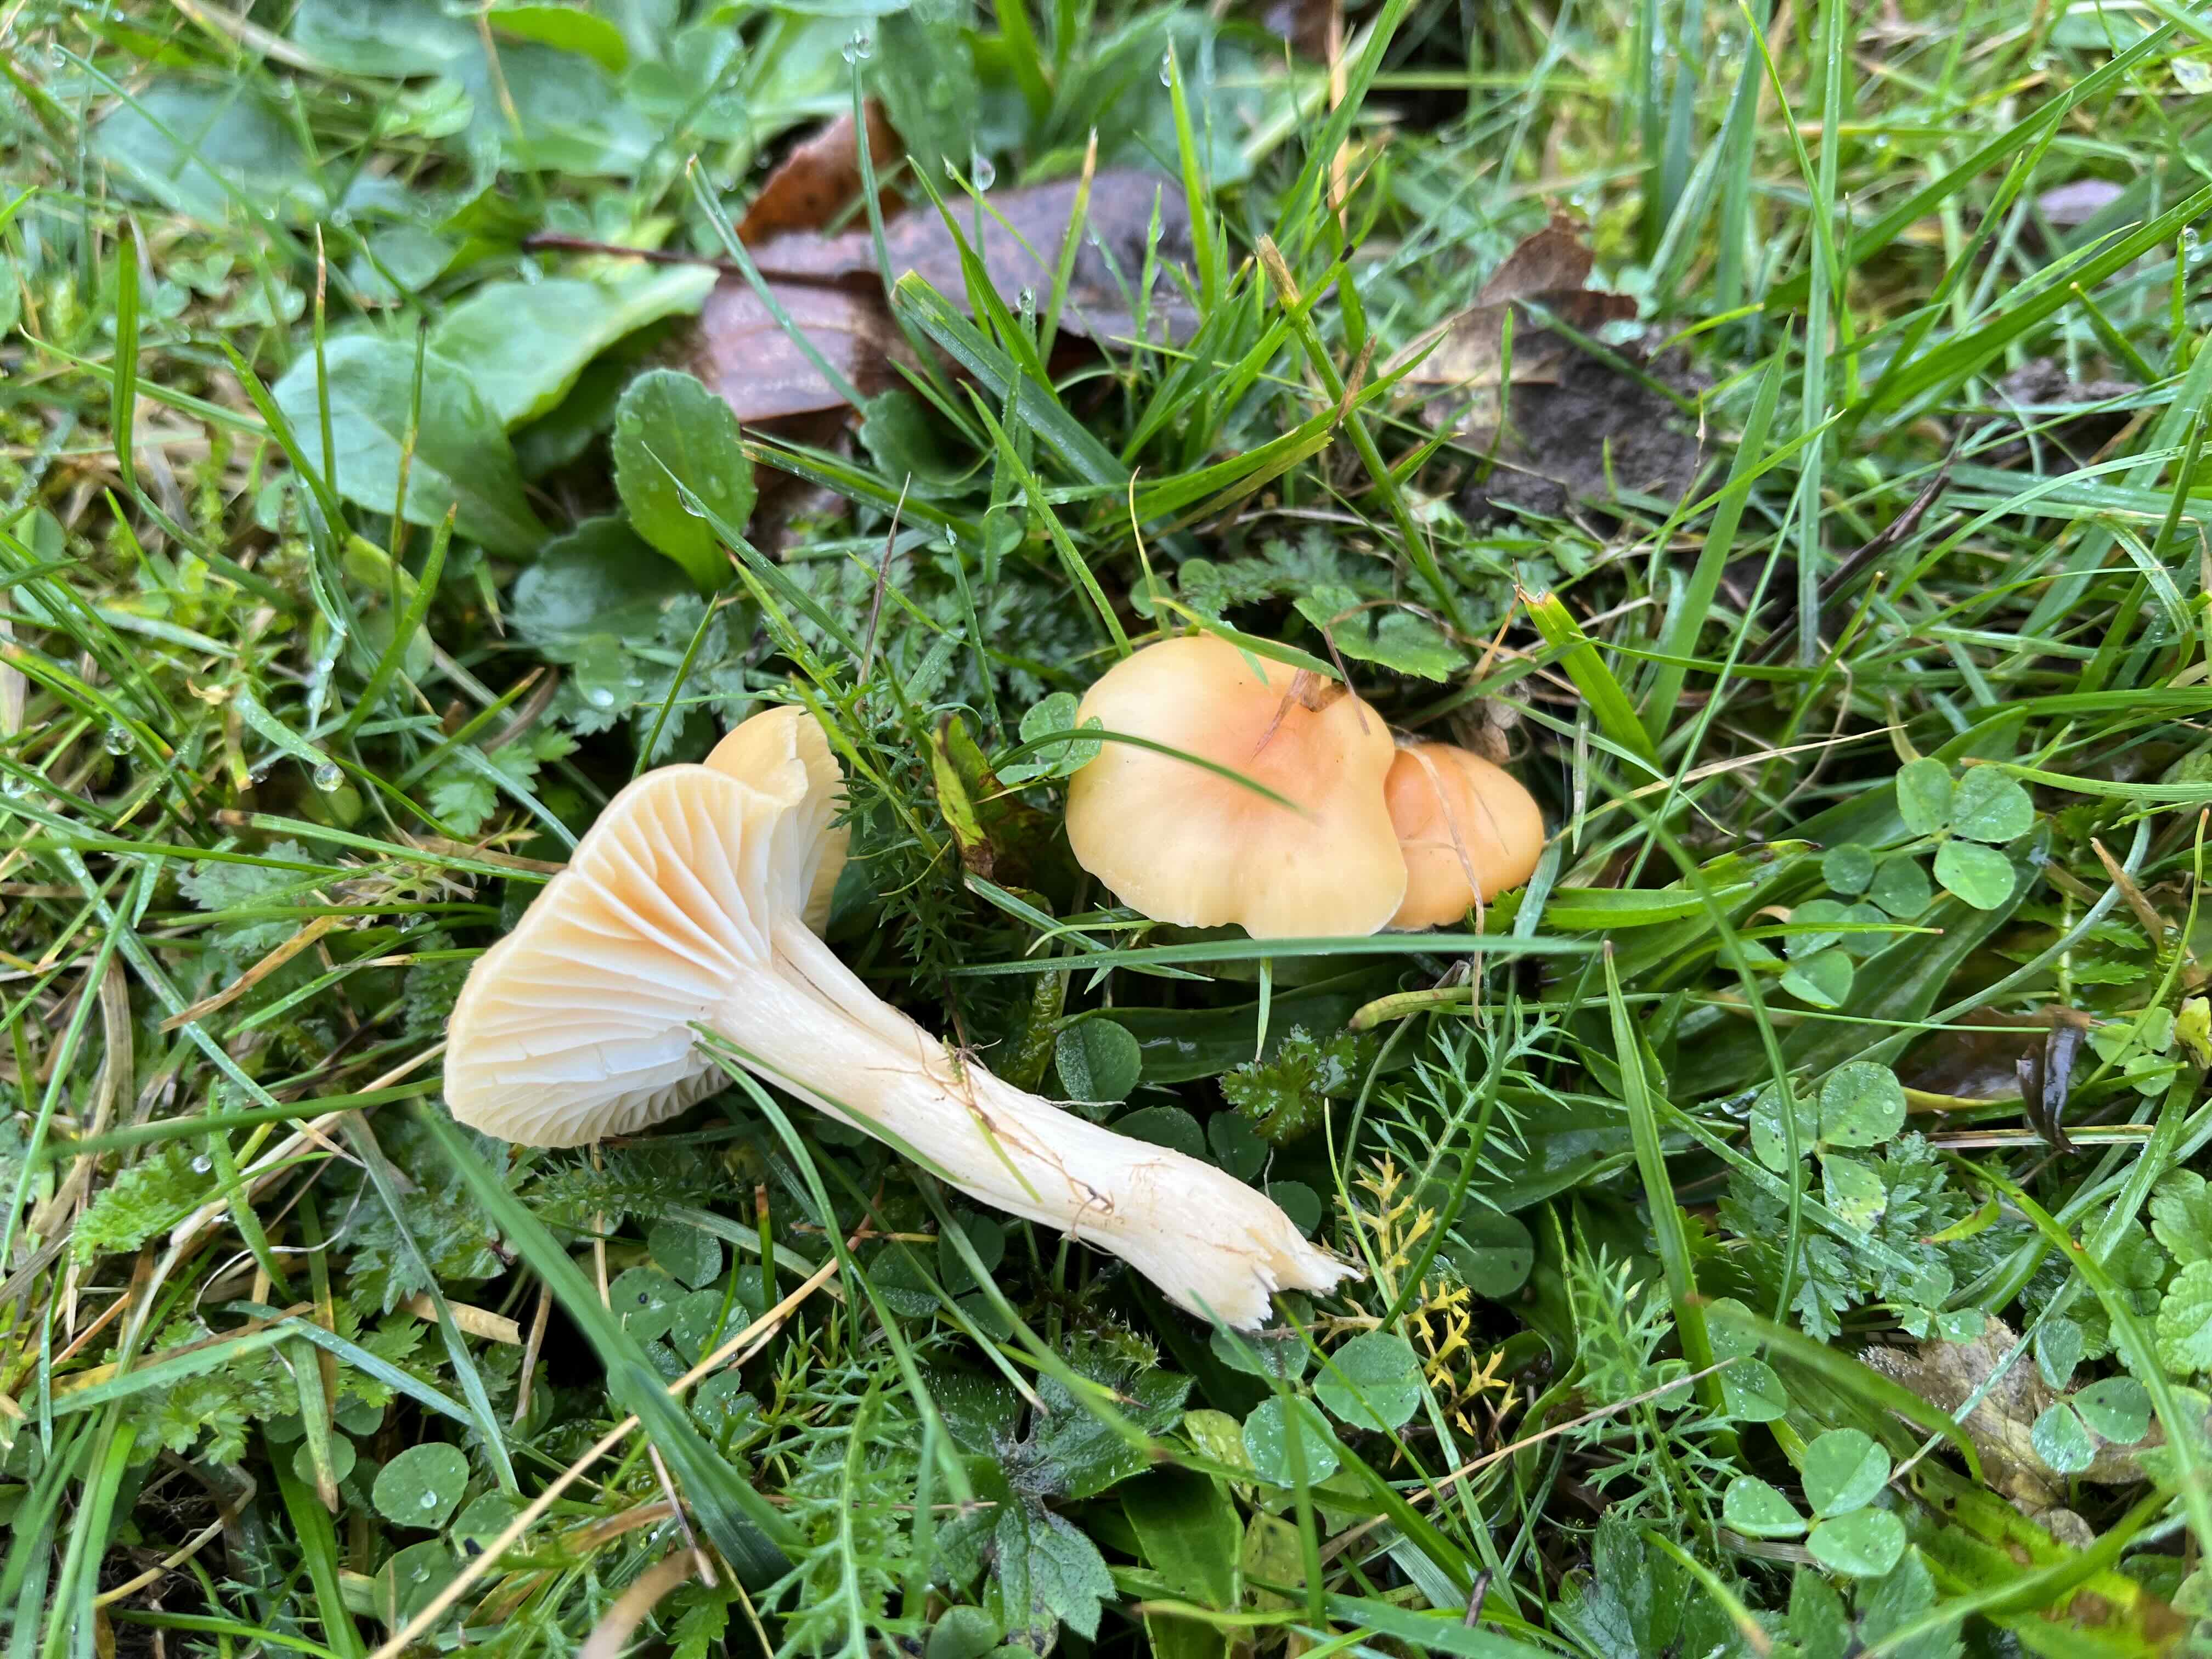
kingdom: Fungi
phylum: Basidiomycota
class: Agaricomycetes
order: Agaricales
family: Hygrophoraceae
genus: Cuphophyllus
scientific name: Cuphophyllus pratensis
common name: eng-vokshat
